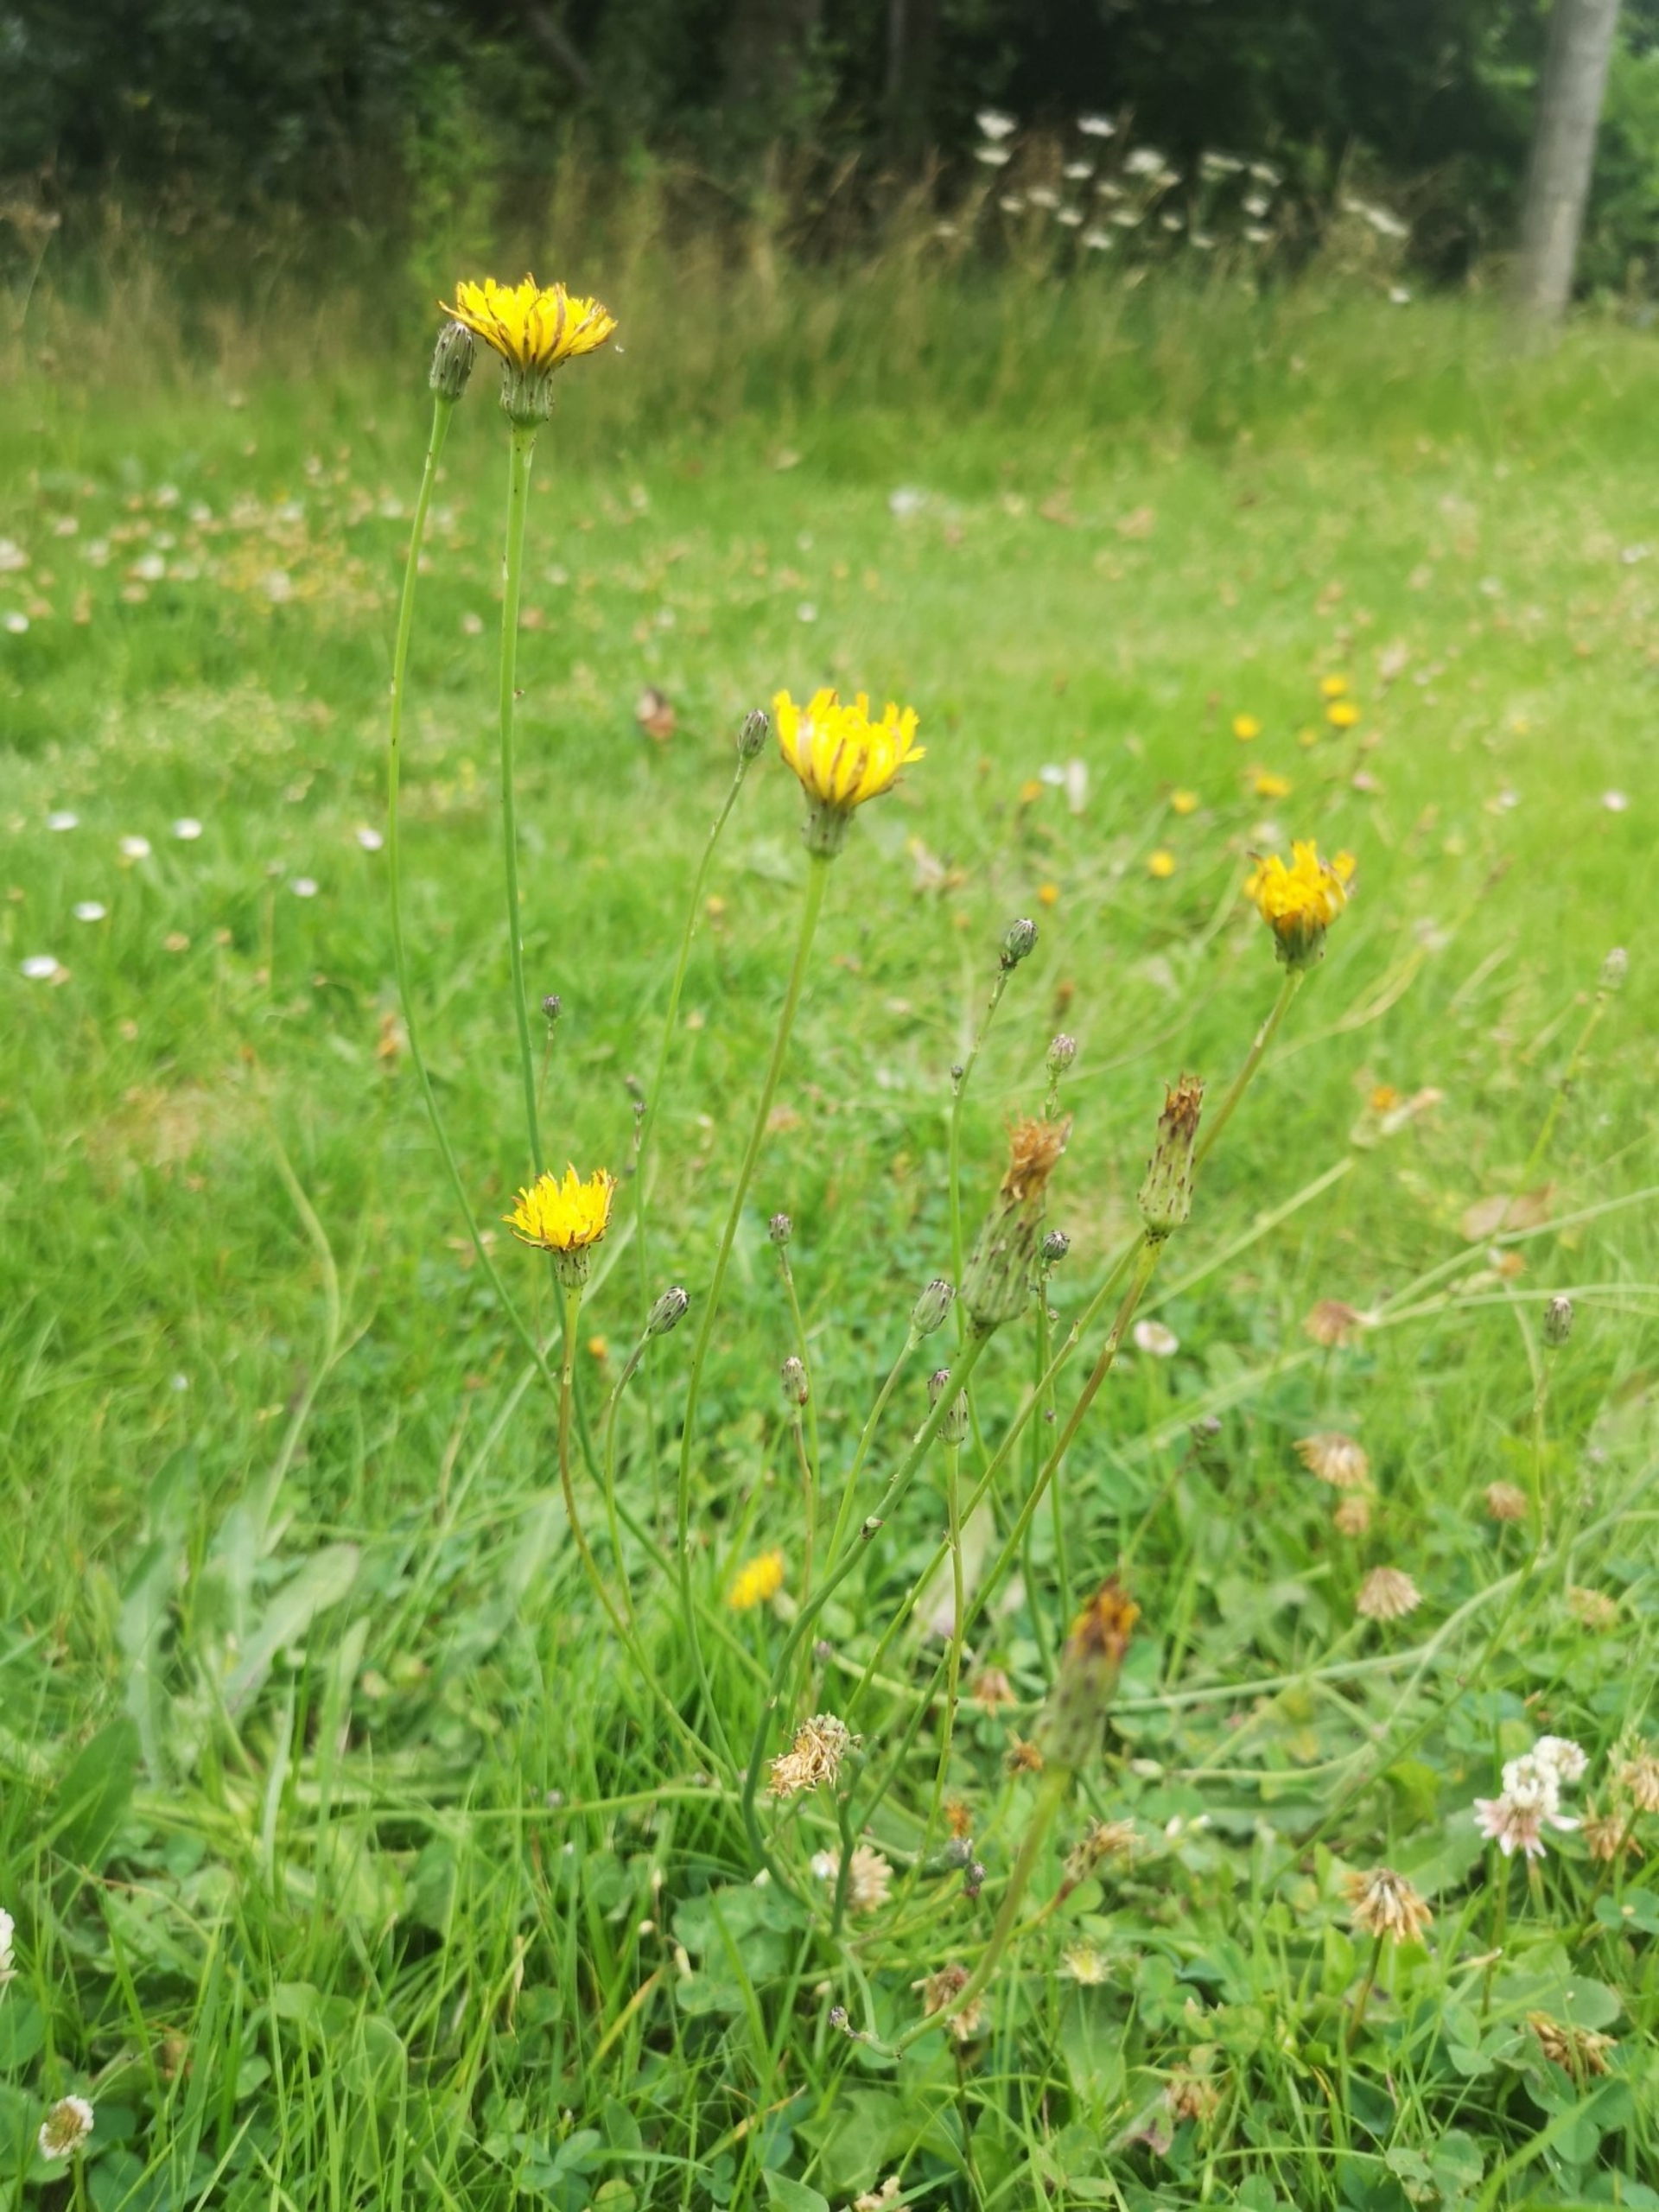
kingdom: Plantae
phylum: Tracheophyta
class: Magnoliopsida
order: Asterales
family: Asteraceae
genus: Hypochaeris
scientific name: Hypochaeris radicata
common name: Almindelig kongepen
